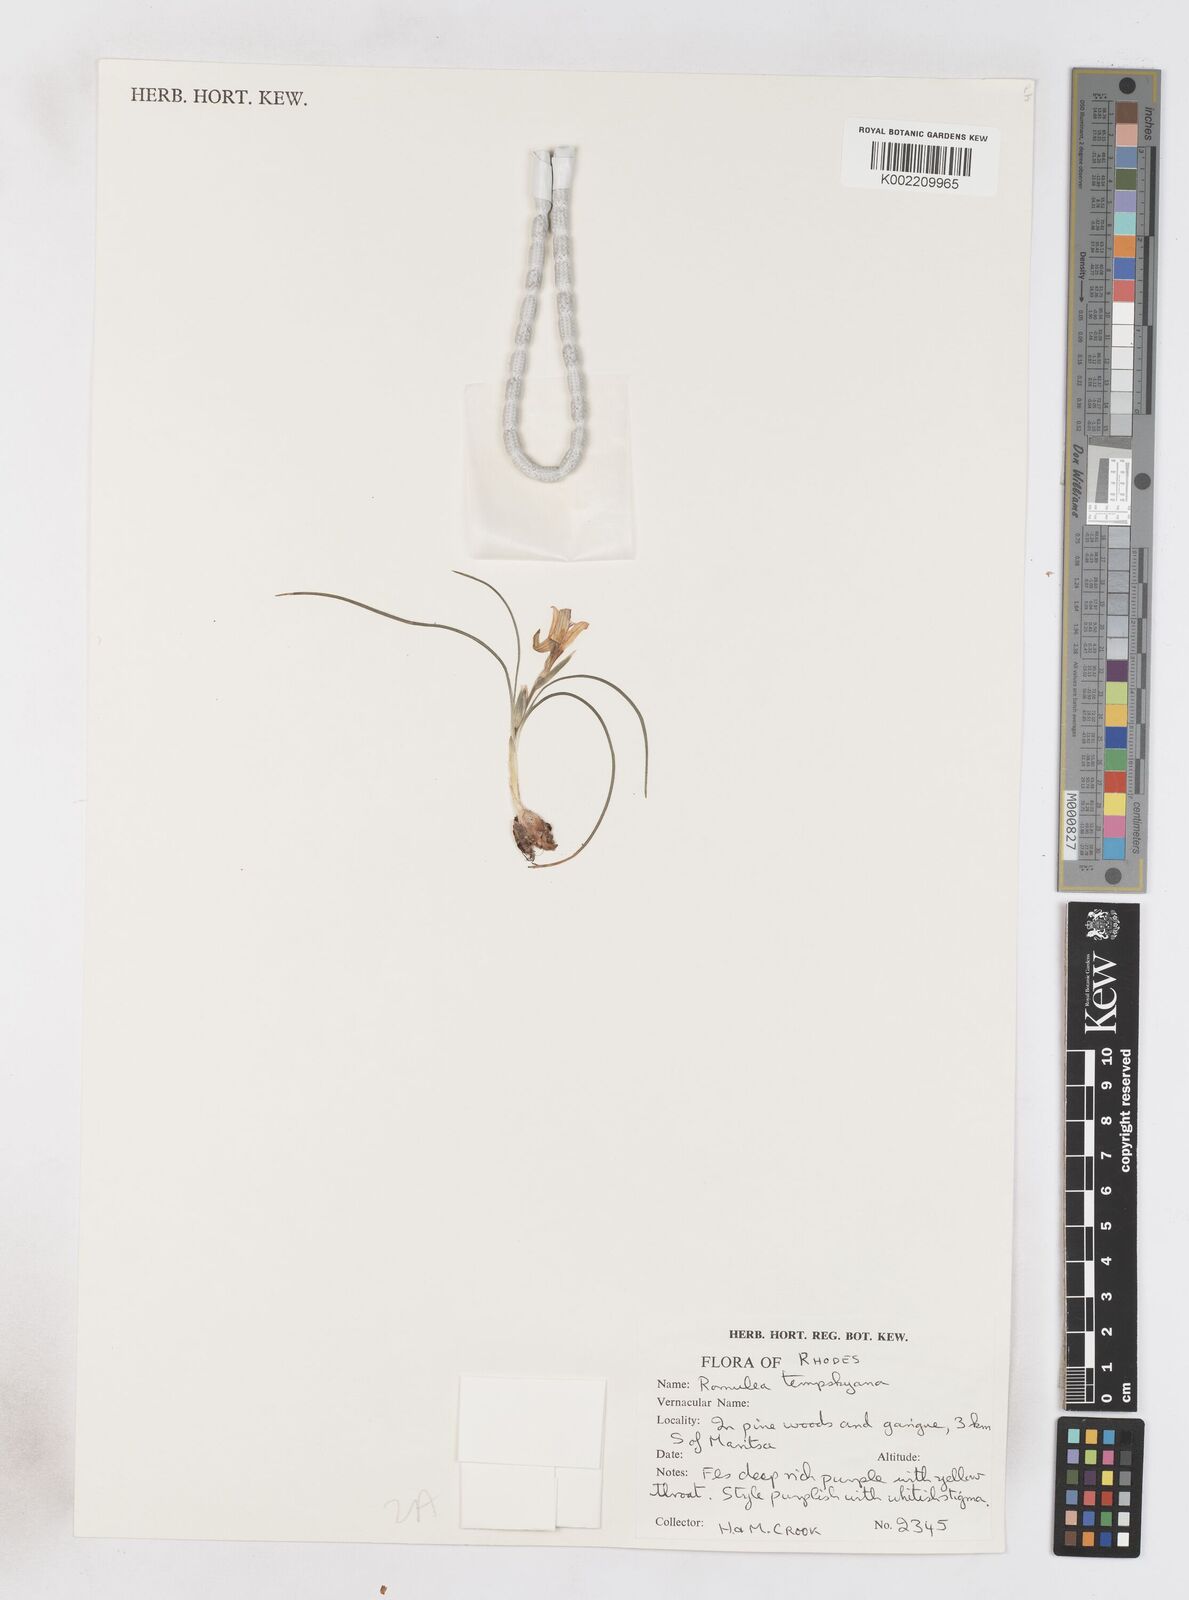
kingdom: Plantae
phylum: Tracheophyta
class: Liliopsida
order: Asparagales
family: Iridaceae
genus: Romulea
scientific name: Romulea tempskyana
